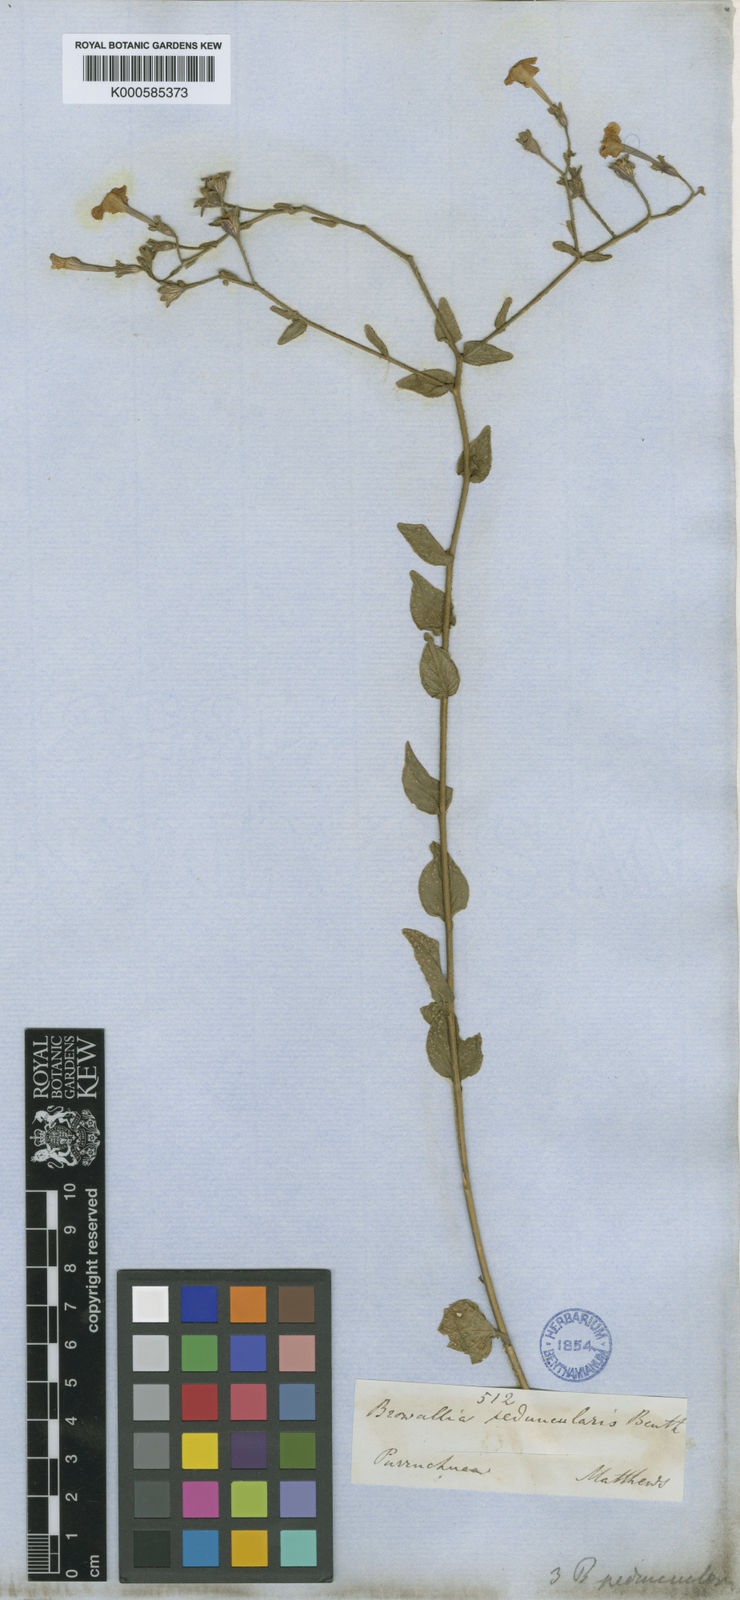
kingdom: Plantae
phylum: Tracheophyta
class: Magnoliopsida
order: Solanales
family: Solanaceae
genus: Browallia
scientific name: Browallia americana
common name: Jamaican forget-me-not
